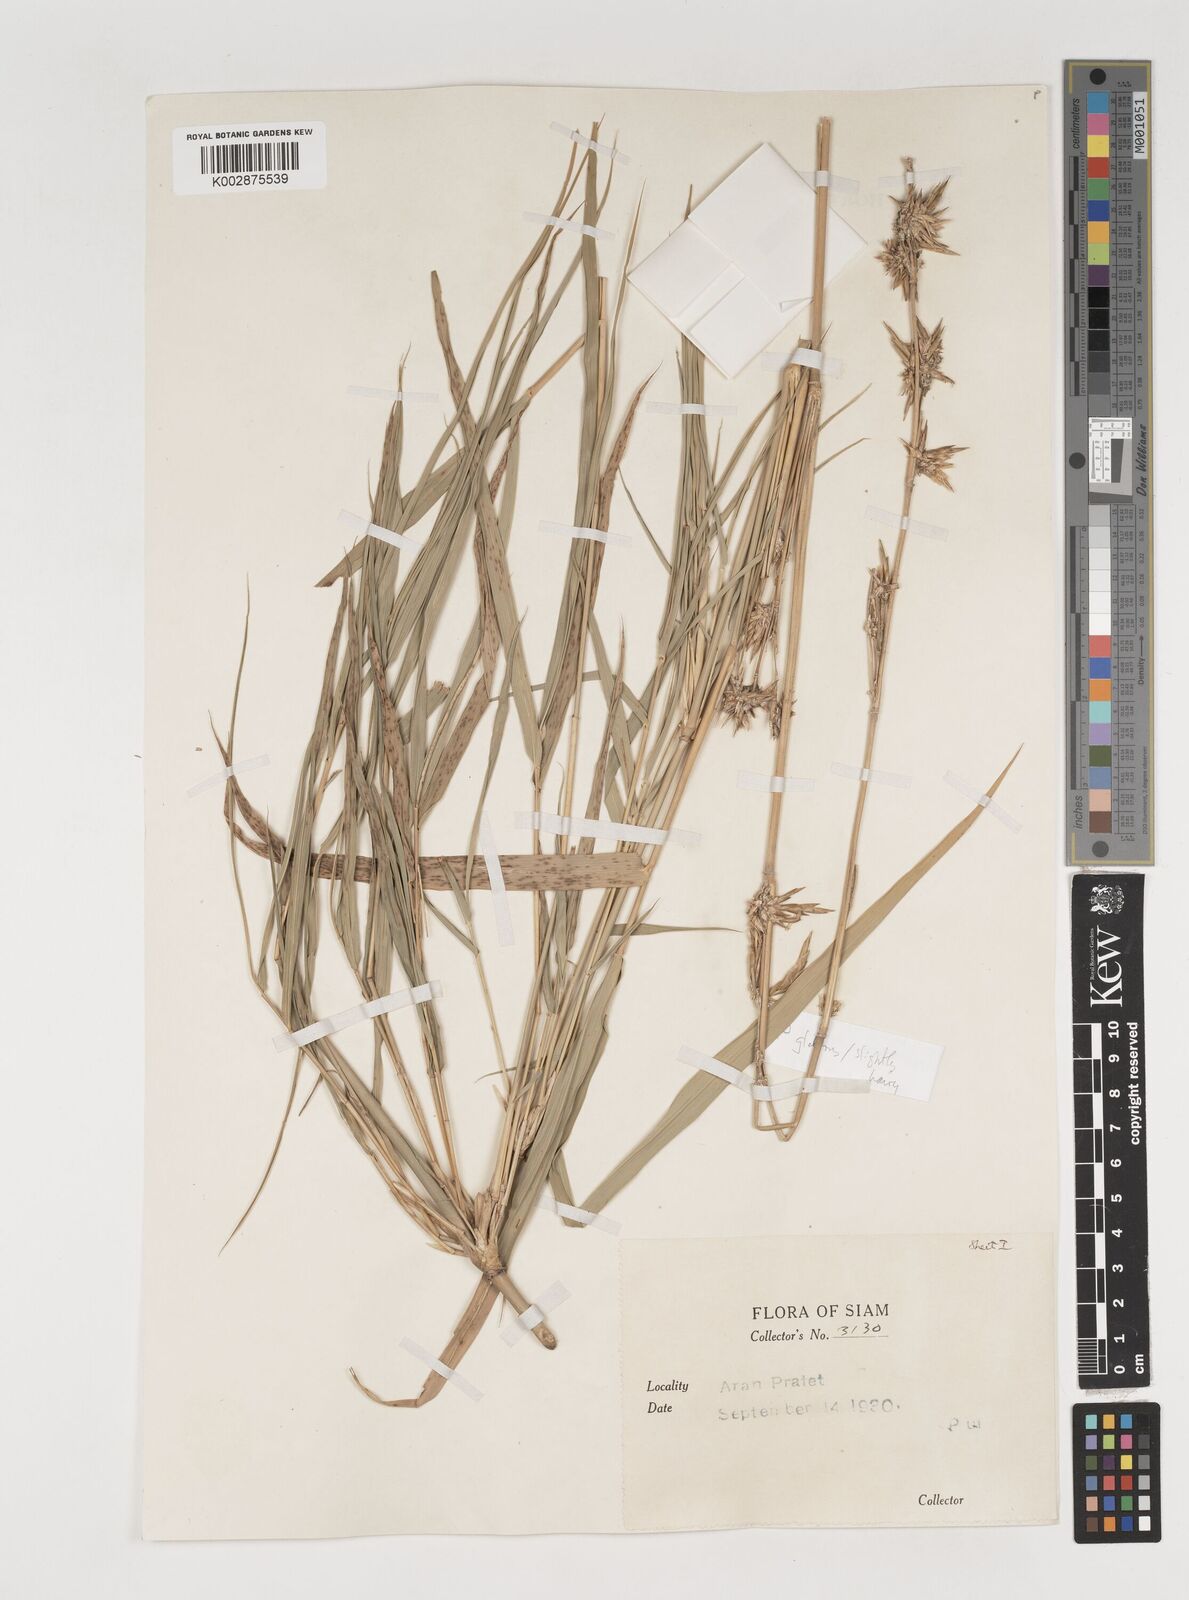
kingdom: Plantae
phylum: Tracheophyta
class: Liliopsida
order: Poales
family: Poaceae
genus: Vietnamosasa
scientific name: Vietnamosasa
